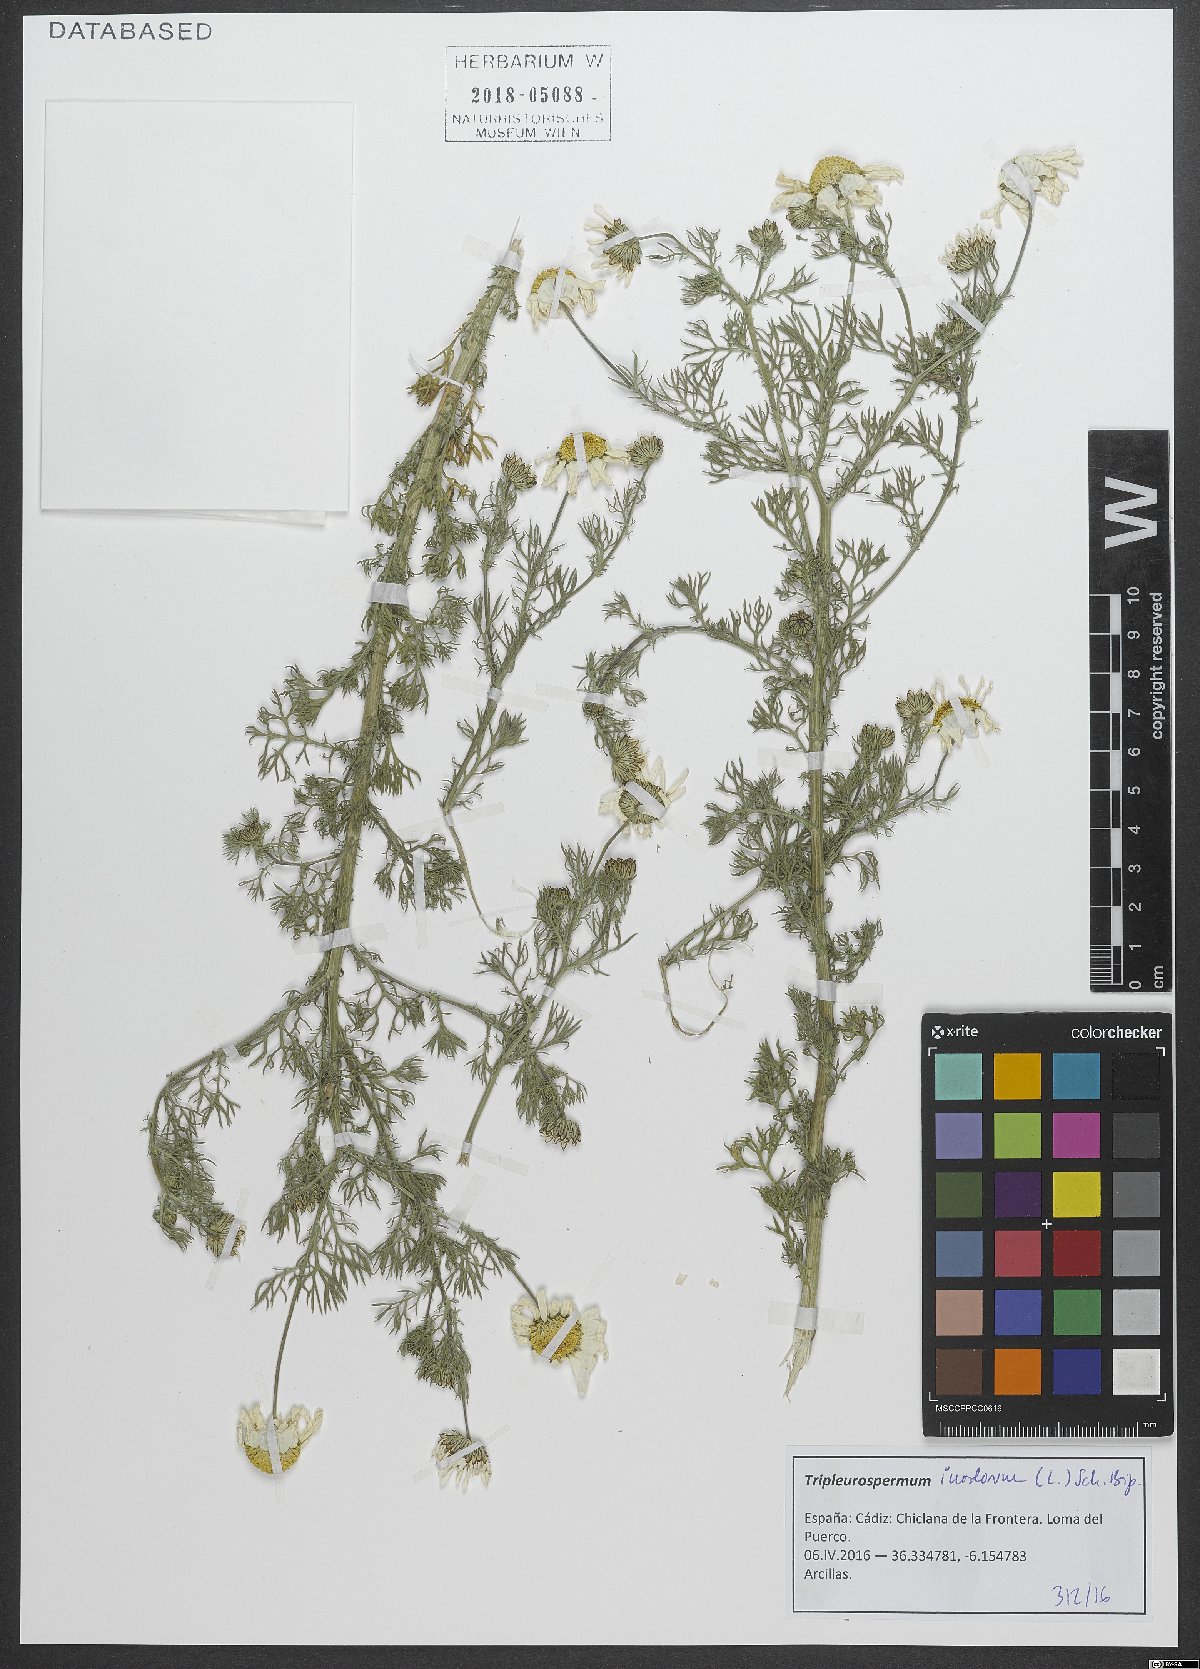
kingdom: Plantae
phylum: Tracheophyta
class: Magnoliopsida
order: Asterales
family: Asteraceae
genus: Tripleurospermum
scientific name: Tripleurospermum inodorum
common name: Scentless mayweed
